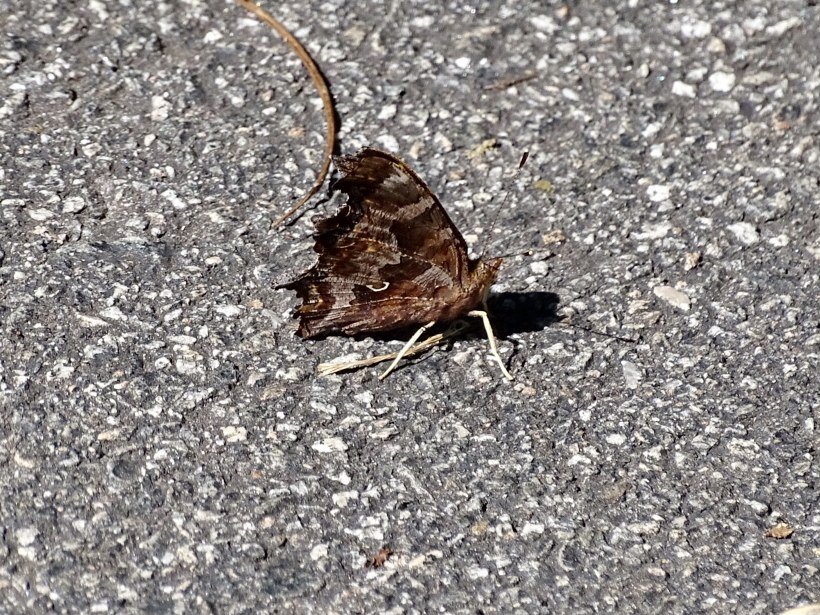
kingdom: Animalia
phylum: Arthropoda
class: Insecta
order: Lepidoptera
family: Nymphalidae
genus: Polygonia
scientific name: Polygonia comma
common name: Eastern Comma
